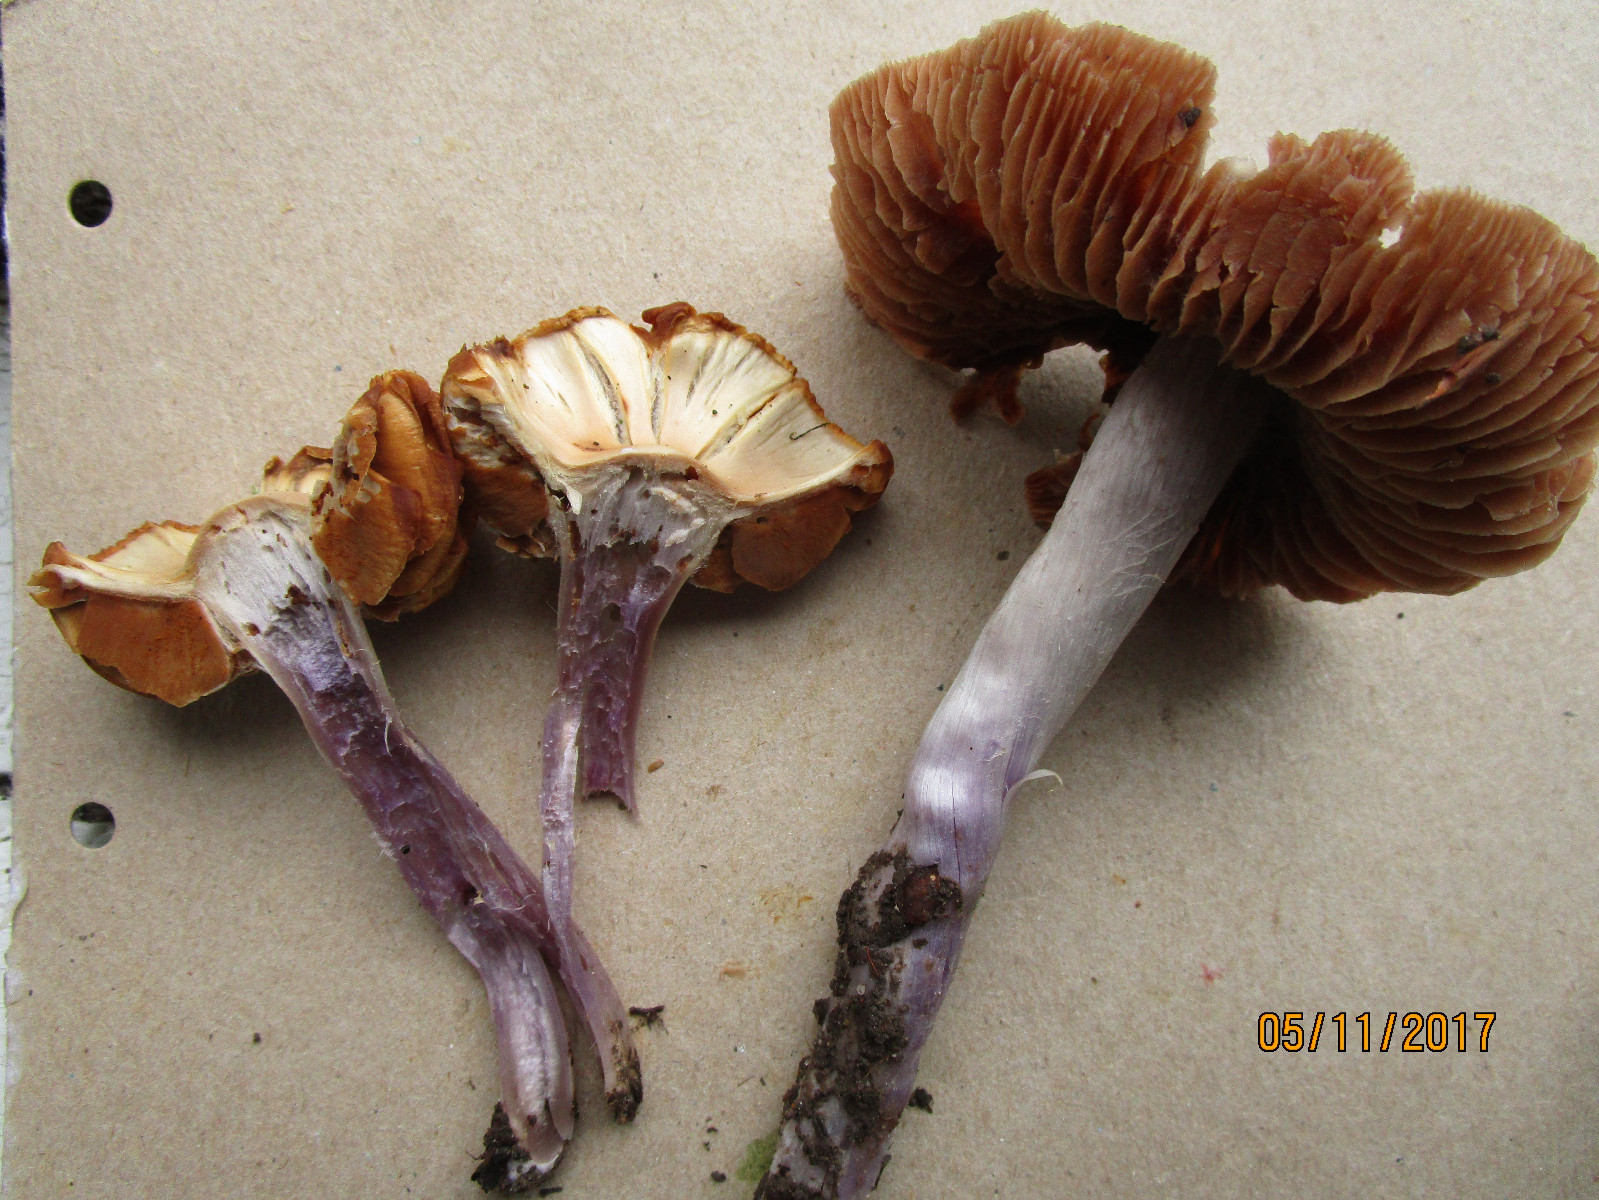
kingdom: Fungi
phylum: Basidiomycota
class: Agaricomycetes
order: Agaricales
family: Cortinariaceae
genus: Cortinarius
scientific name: Cortinarius cagei
